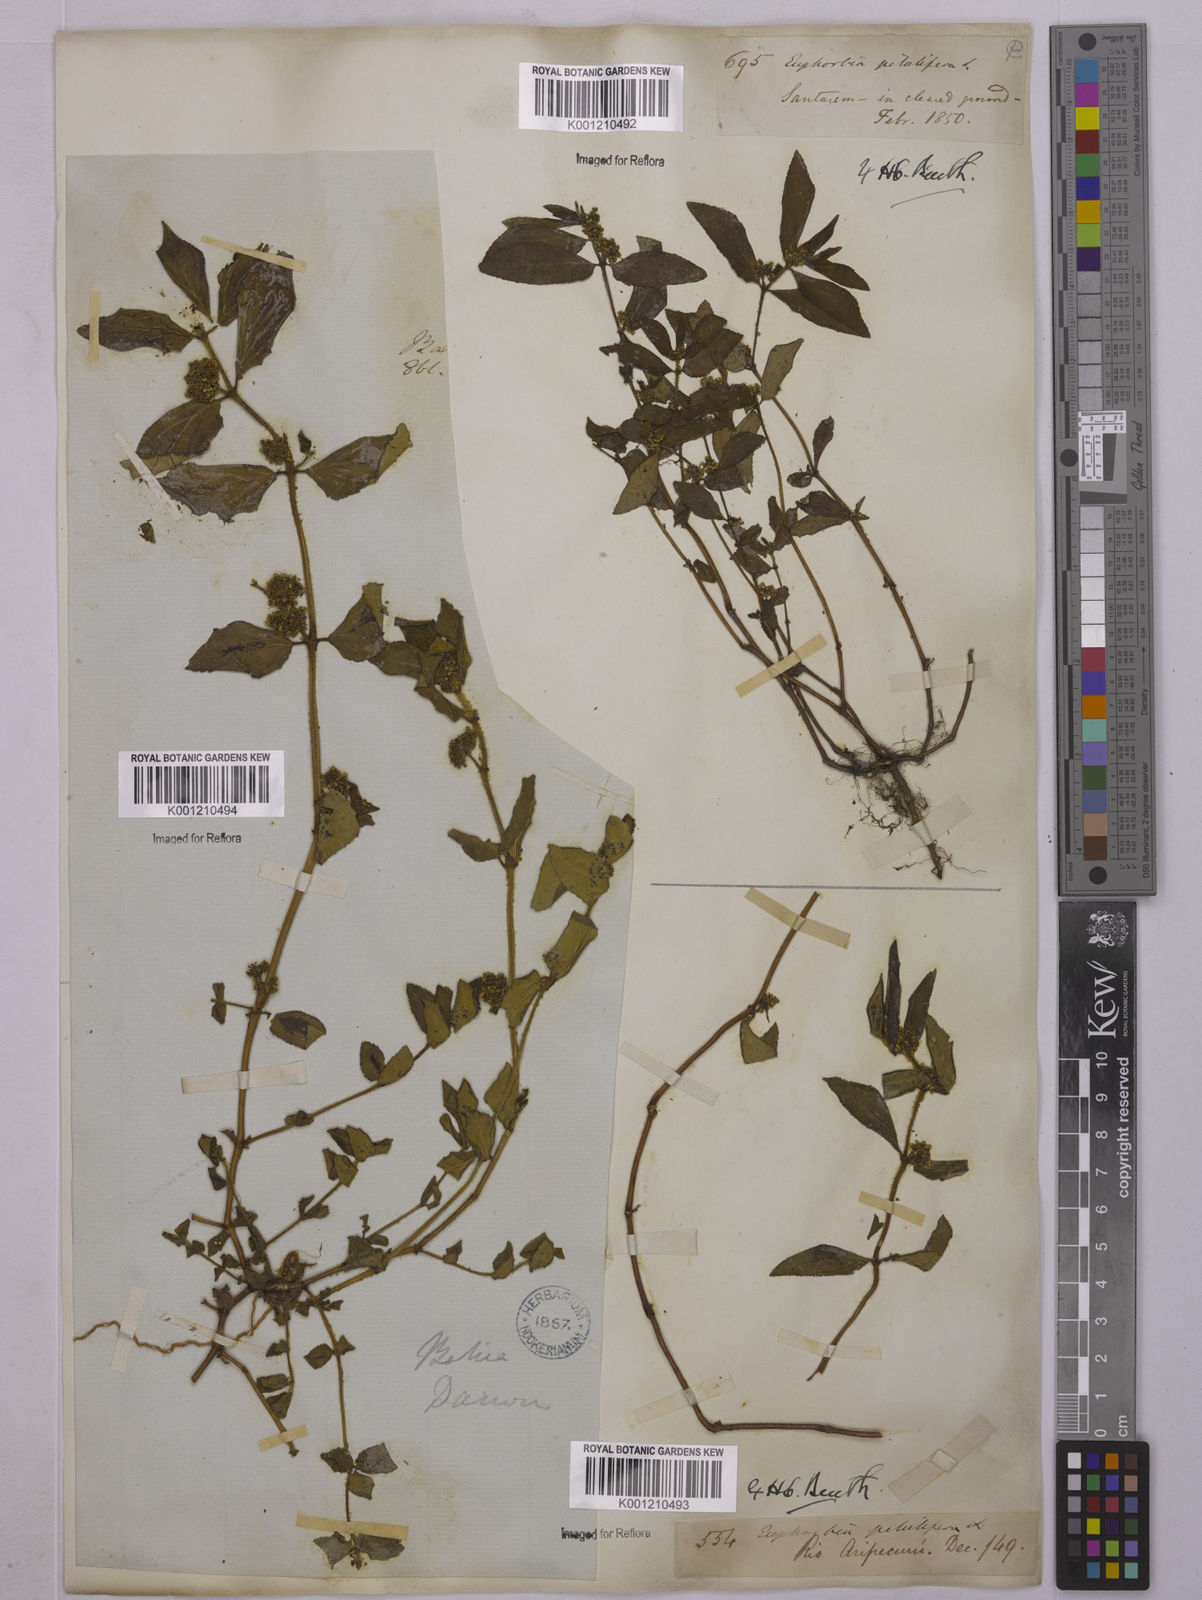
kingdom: Plantae
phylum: Tracheophyta
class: Magnoliopsida
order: Malpighiales
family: Euphorbiaceae
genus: Euphorbia
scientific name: Euphorbia hirta
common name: Pillpod sandmat
